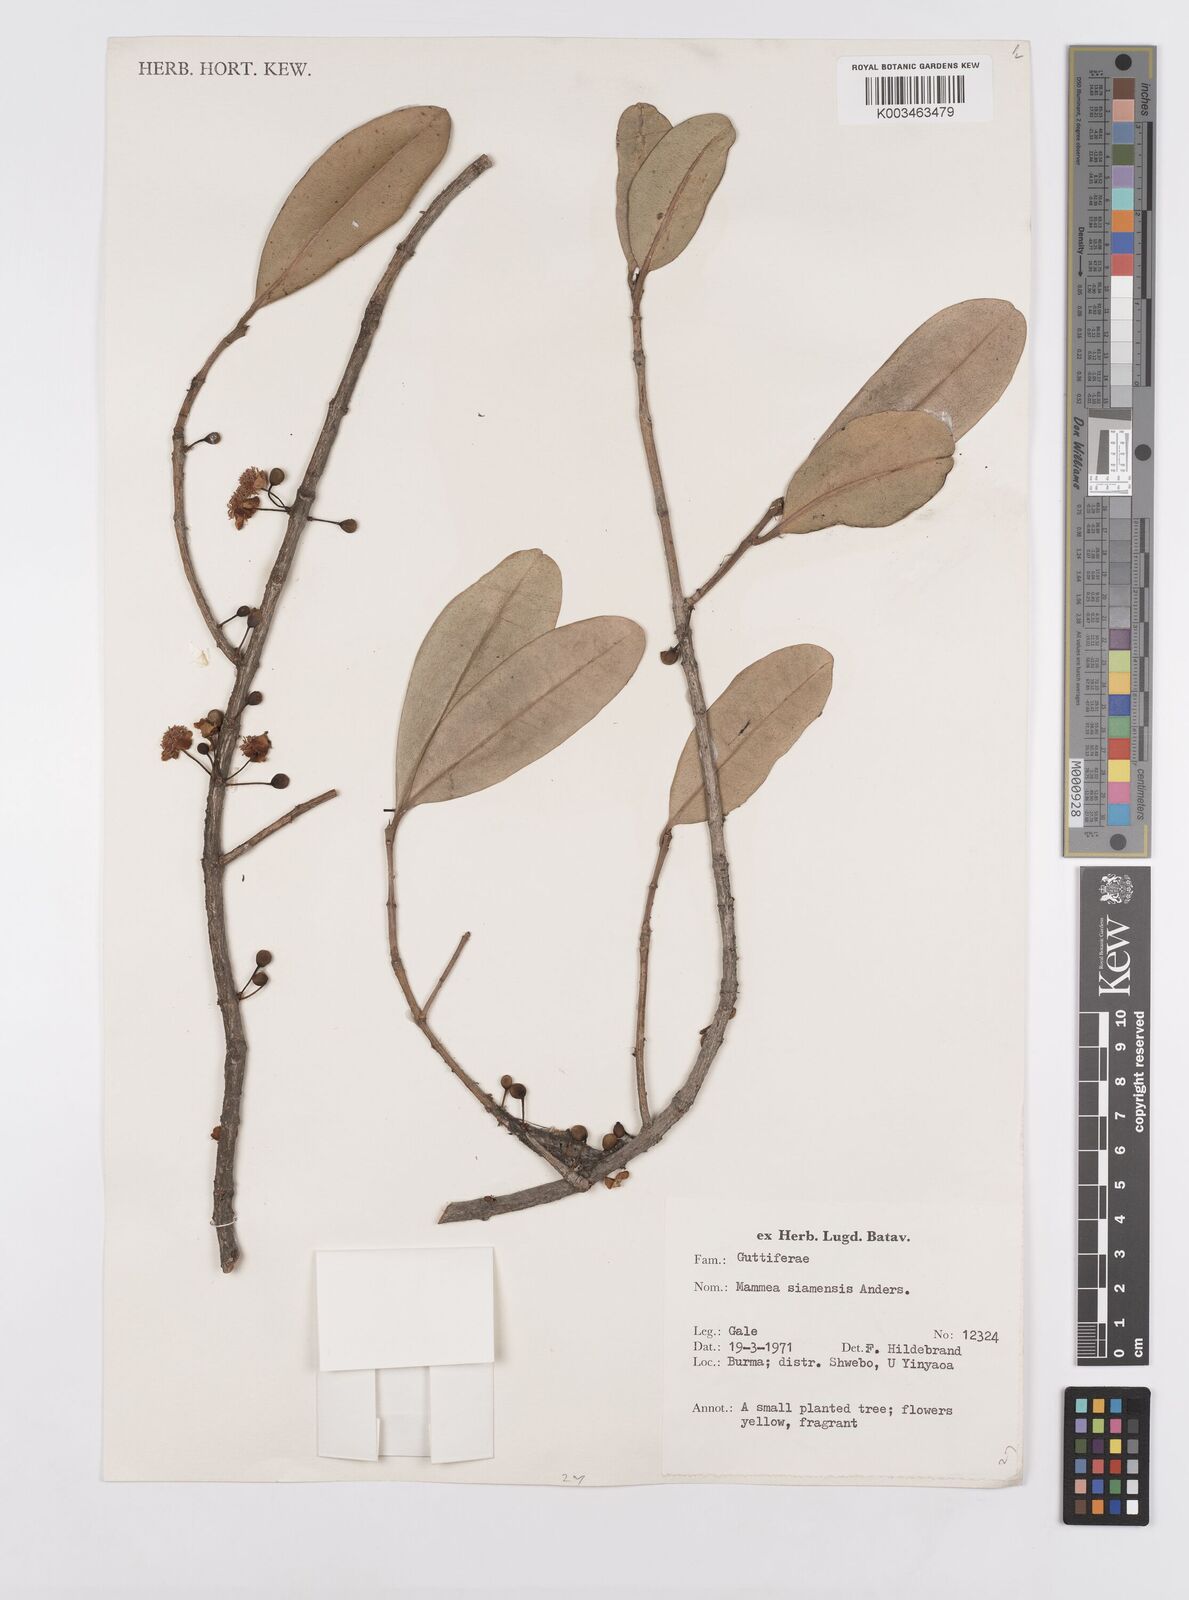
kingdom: Plantae
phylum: Tracheophyta
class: Magnoliopsida
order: Malpighiales
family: Calophyllaceae
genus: Mammea
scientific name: Mammea siamensis
